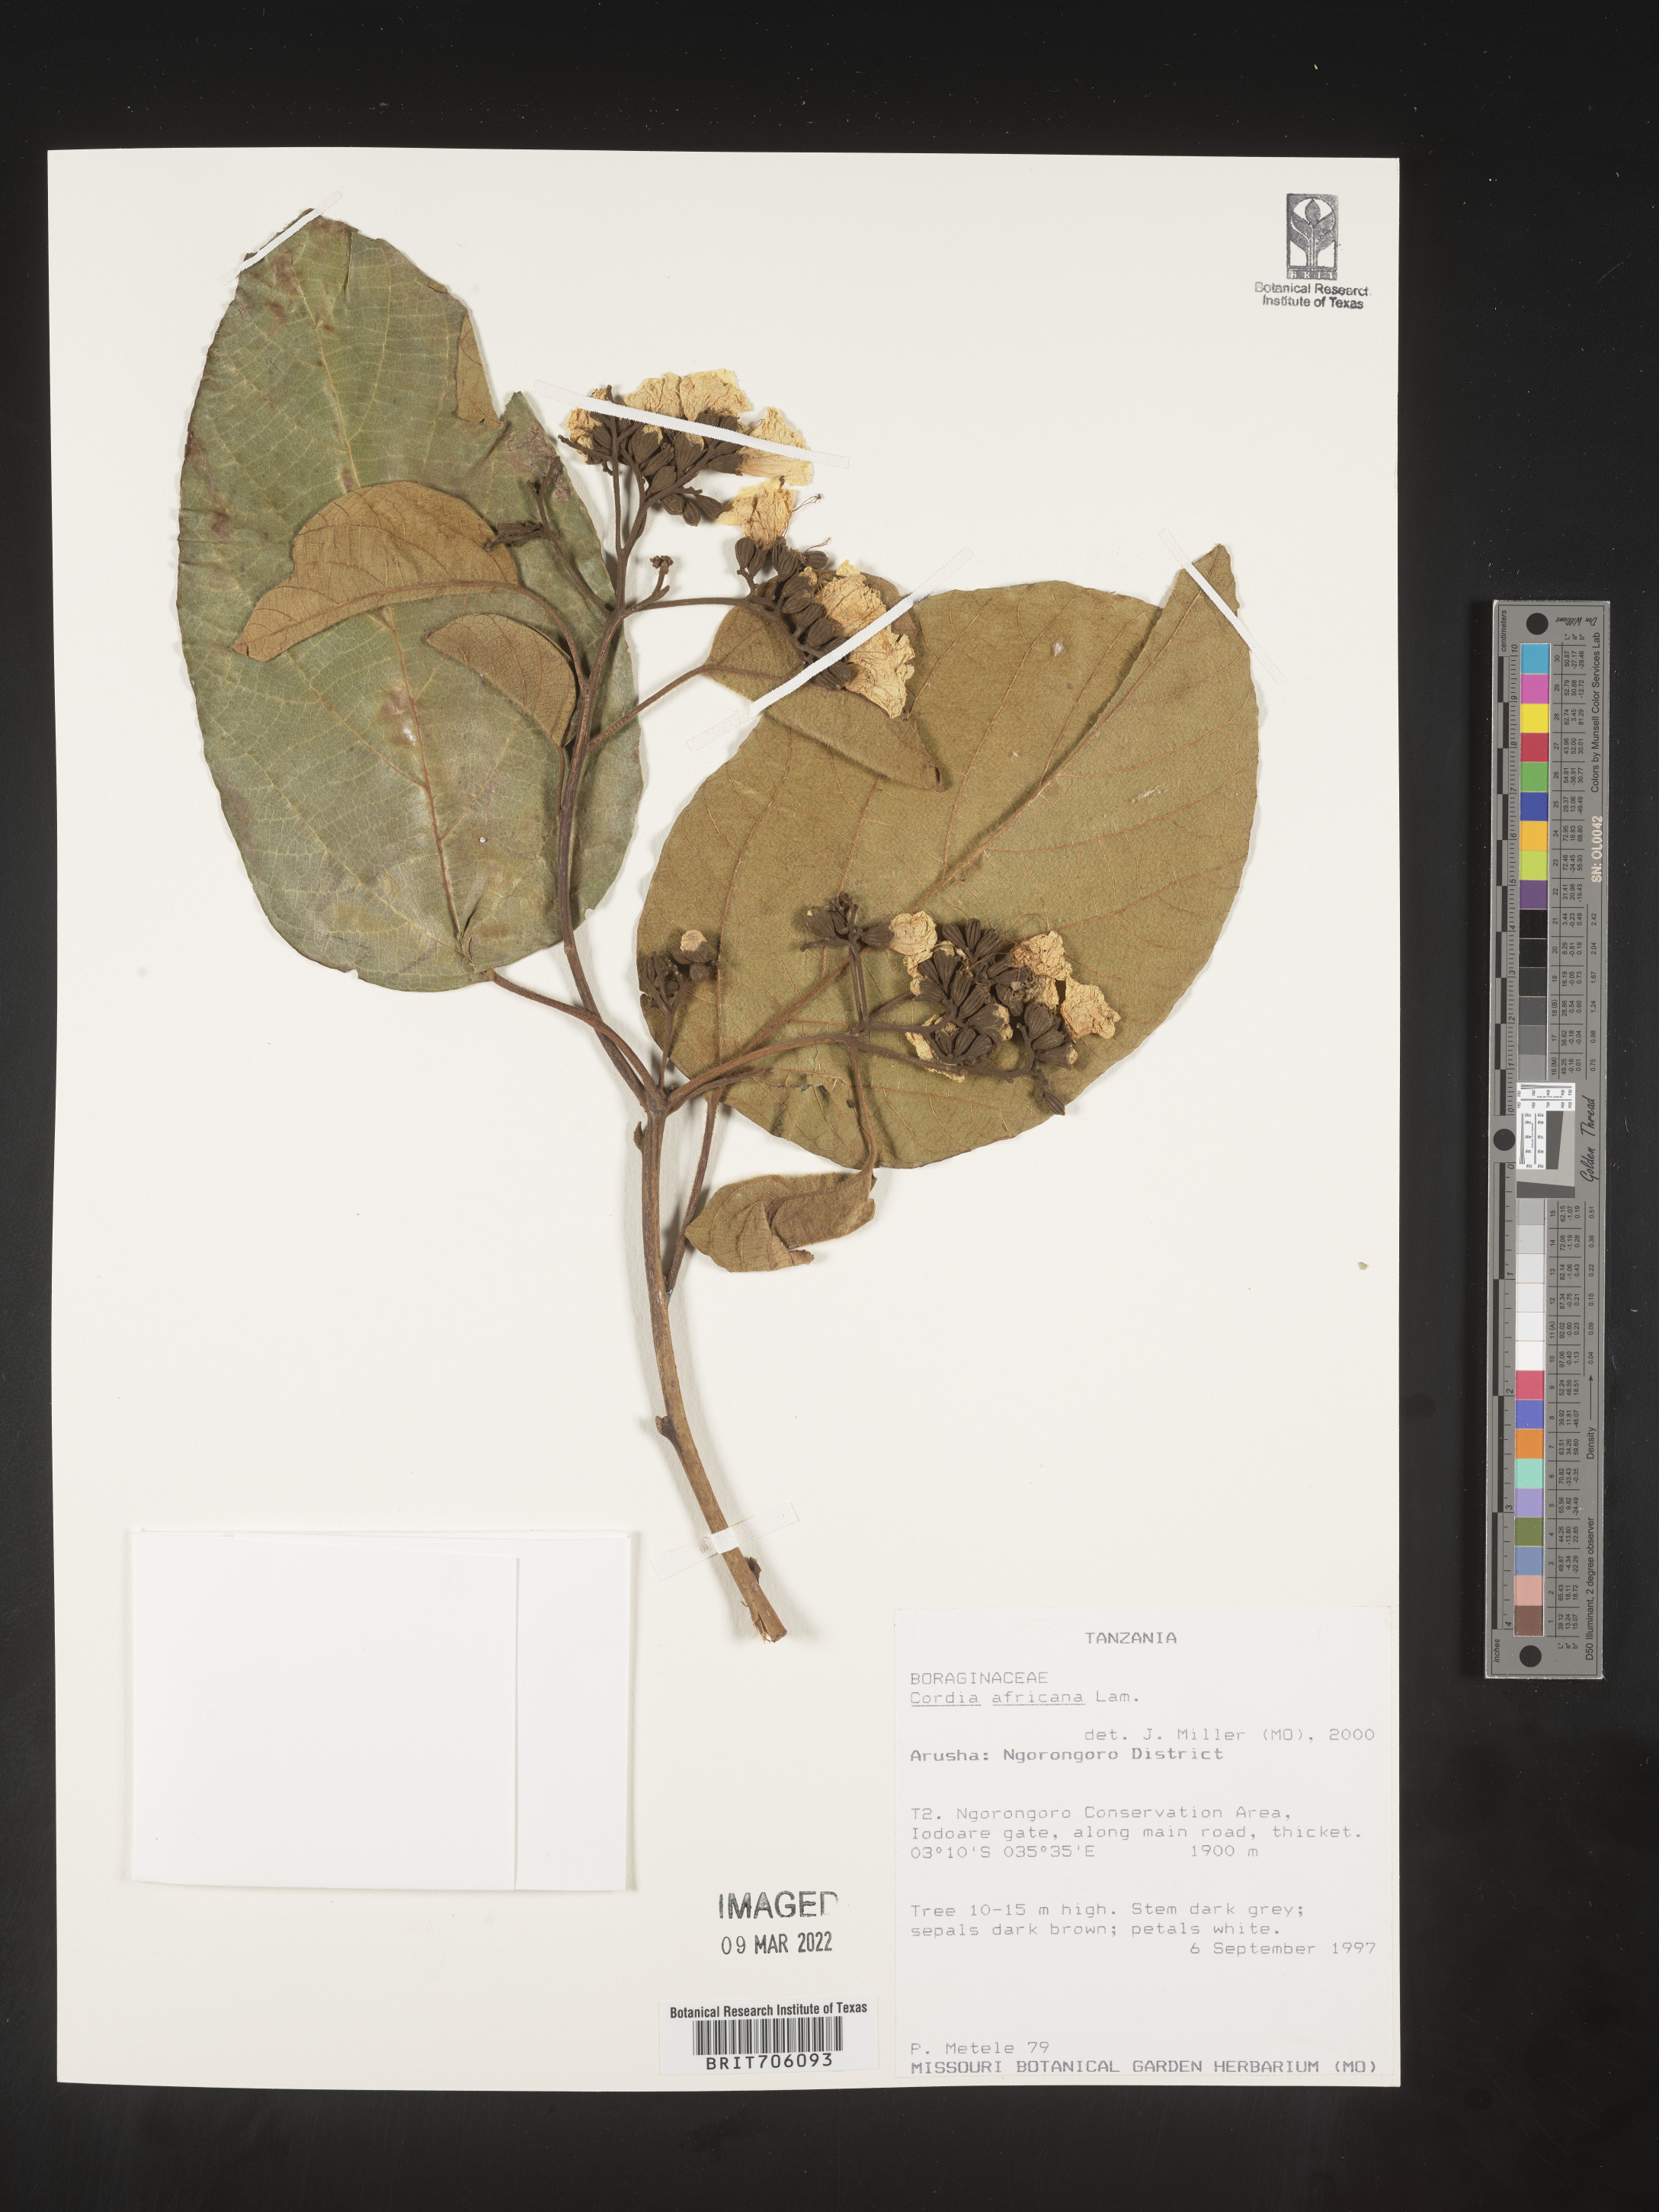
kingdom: Plantae
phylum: Tracheophyta
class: Magnoliopsida
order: Boraginales
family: Cordiaceae
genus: Cordia
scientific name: Cordia
